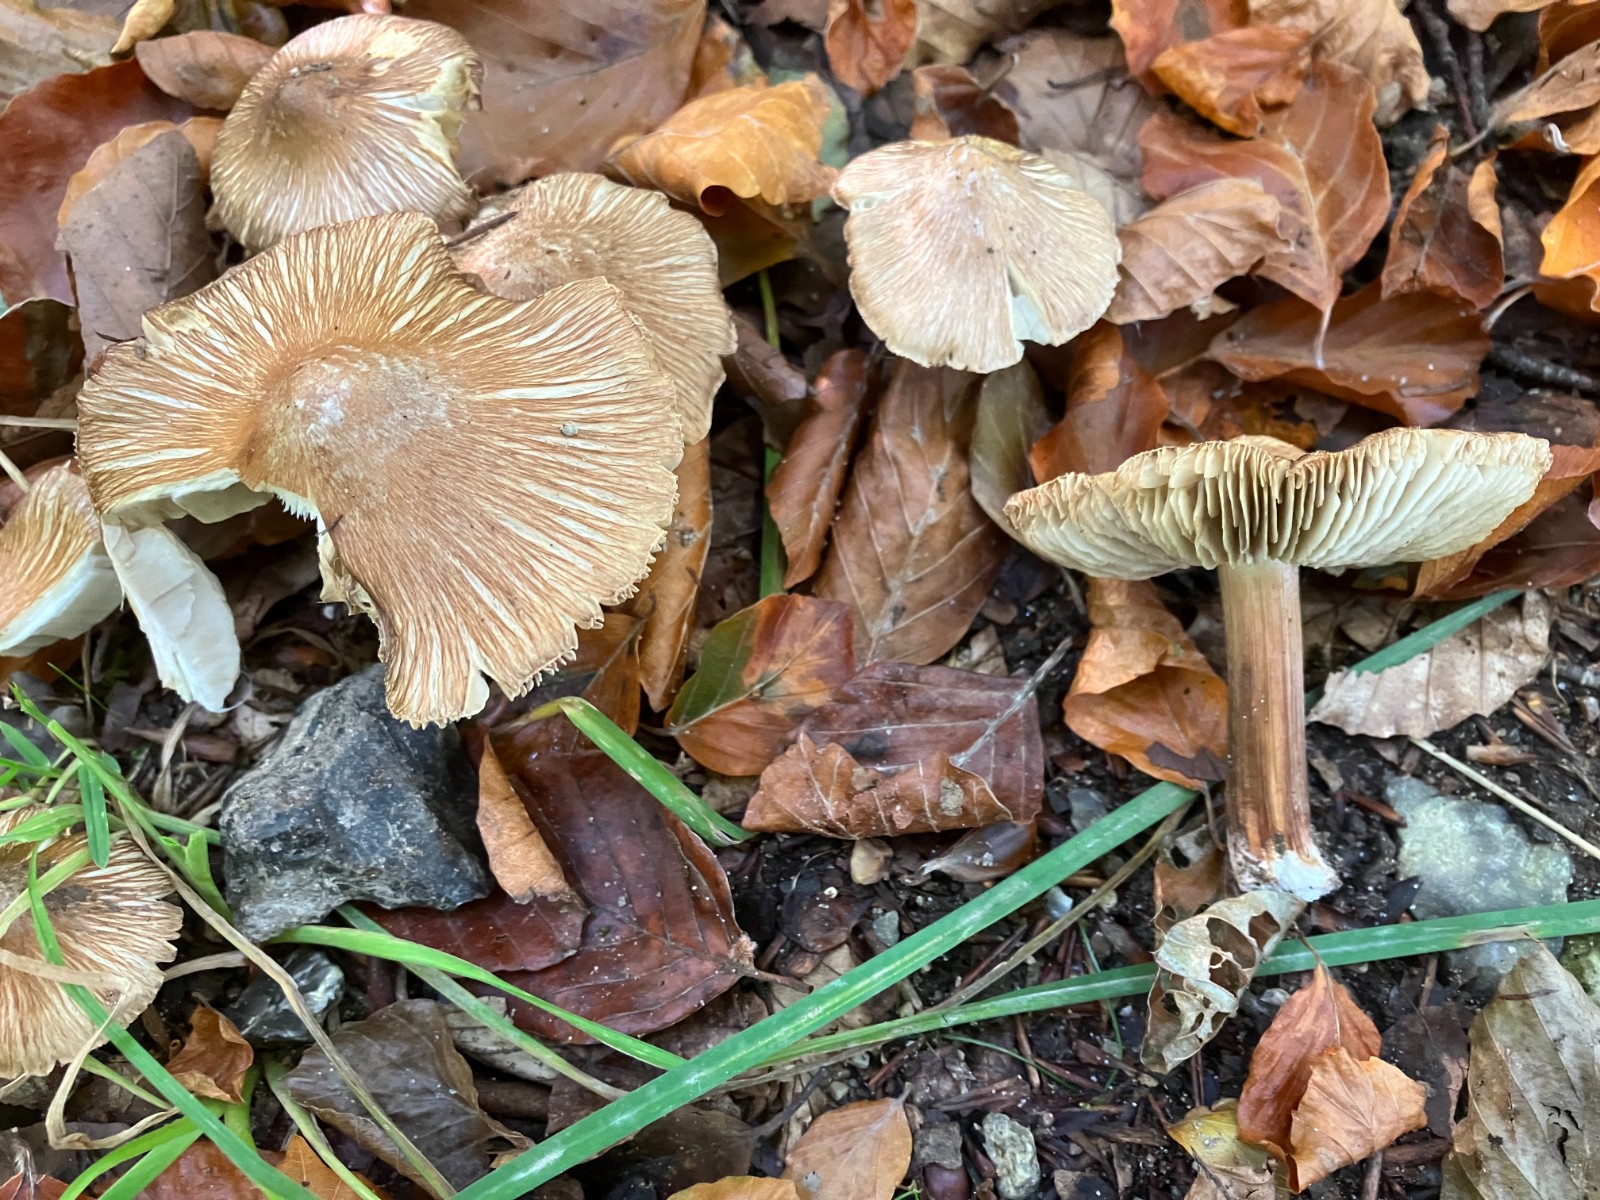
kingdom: Fungi
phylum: Basidiomycota
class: Agaricomycetes
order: Agaricales
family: Inocybaceae
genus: Inosperma
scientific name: Inosperma maculatum
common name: plettet trævlhat
